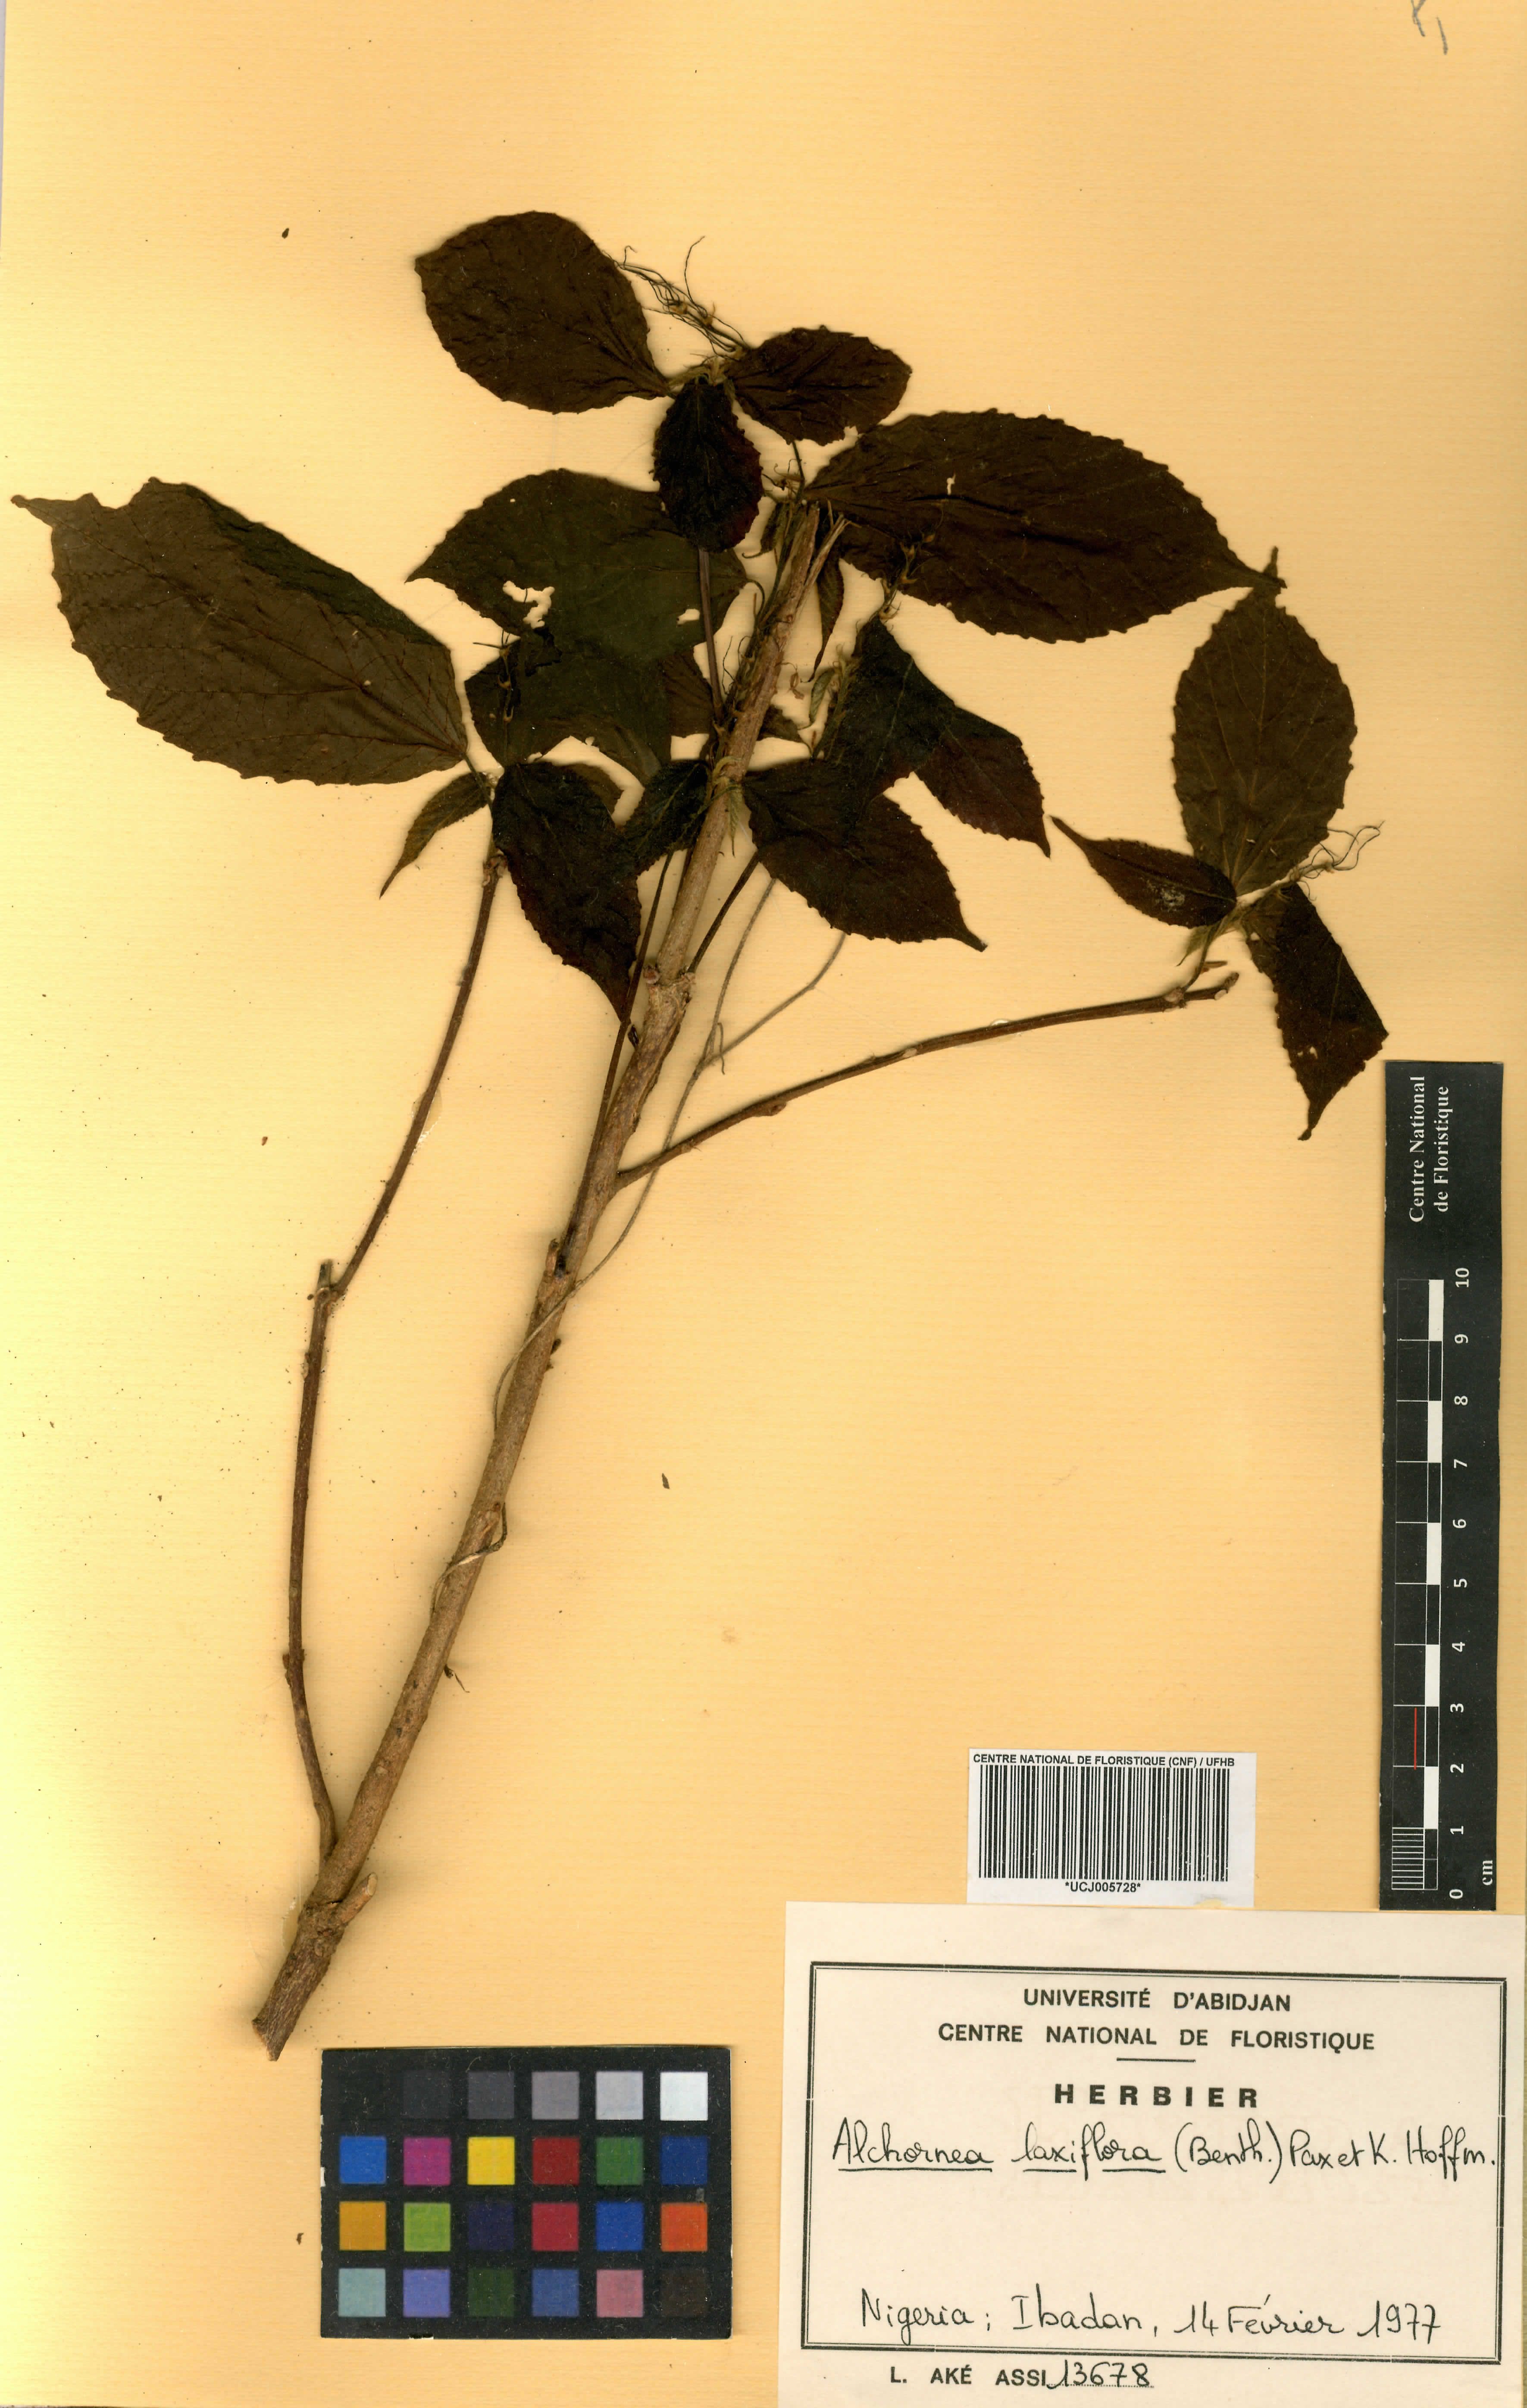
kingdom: Plantae
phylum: Tracheophyta
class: Magnoliopsida
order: Malpighiales
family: Euphorbiaceae
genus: Alchornea
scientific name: Alchornea laxiflora
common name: Lowveld bead-string
